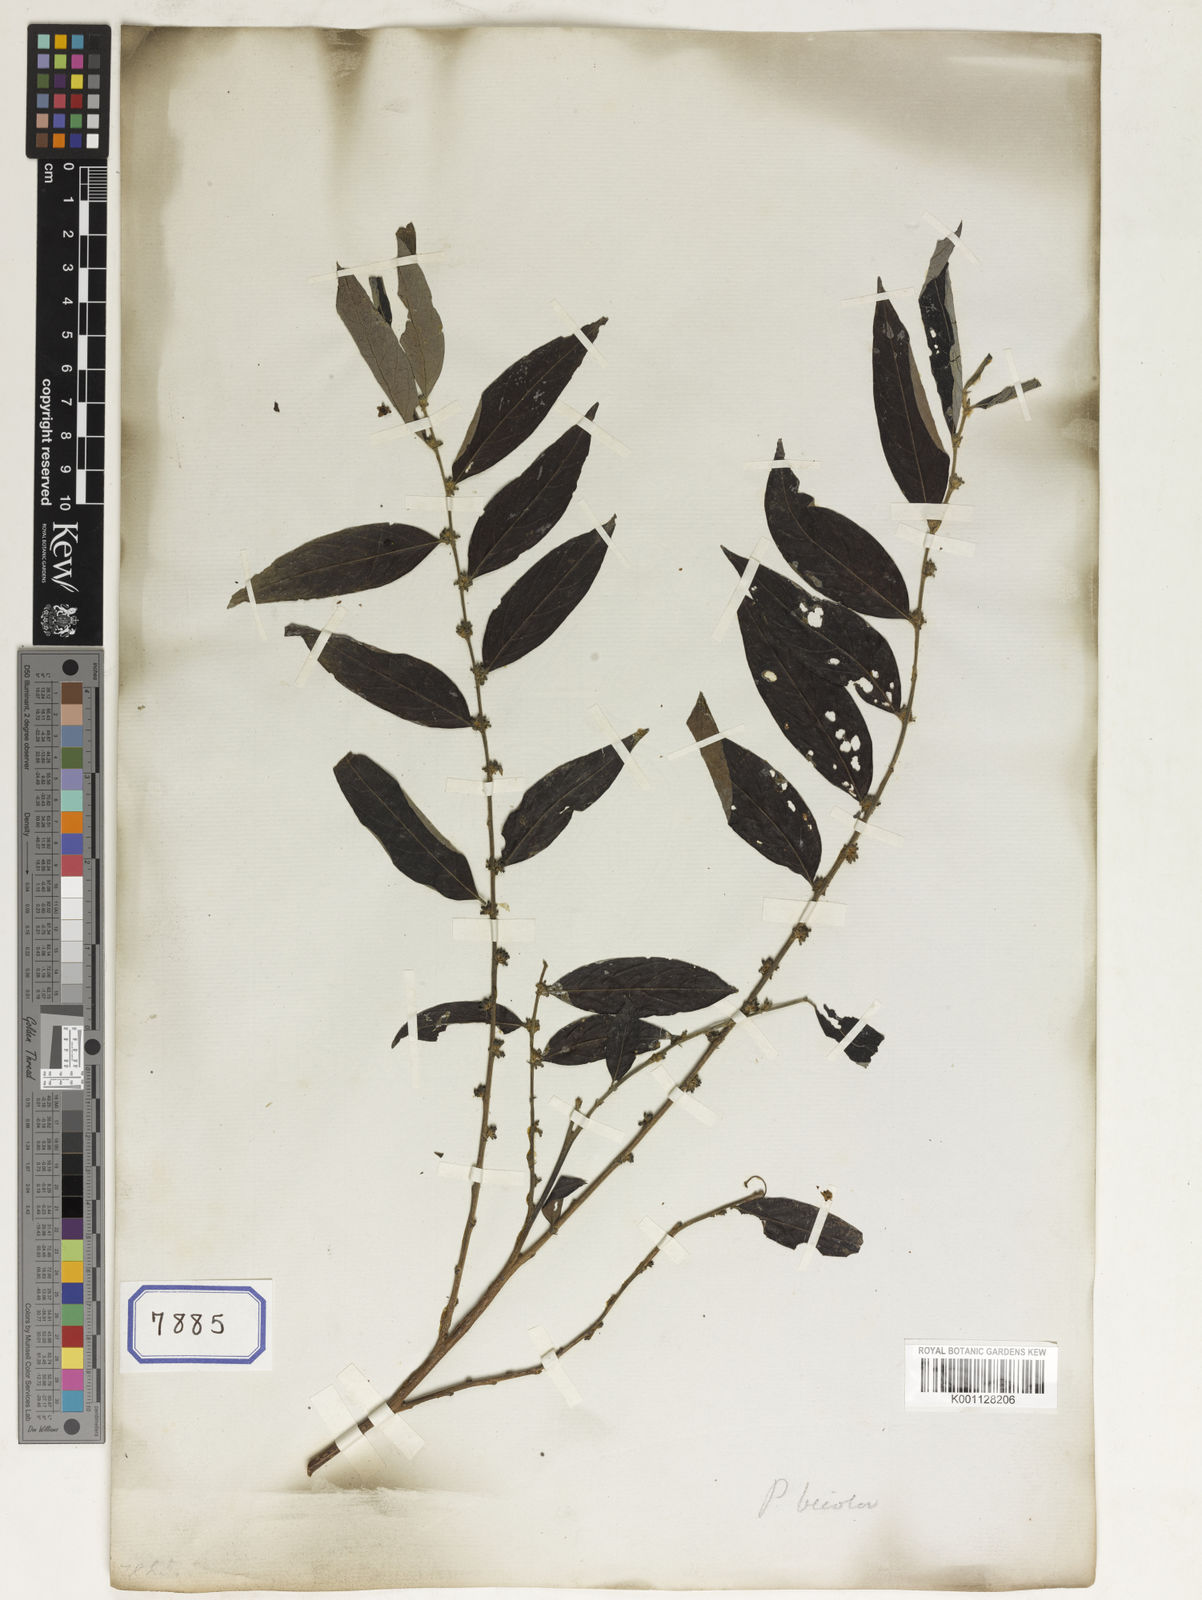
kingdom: Plantae
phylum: Tracheophyta
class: Magnoliopsida
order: Malpighiales
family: Phyllanthaceae
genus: Bridelia
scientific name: Bridelia
